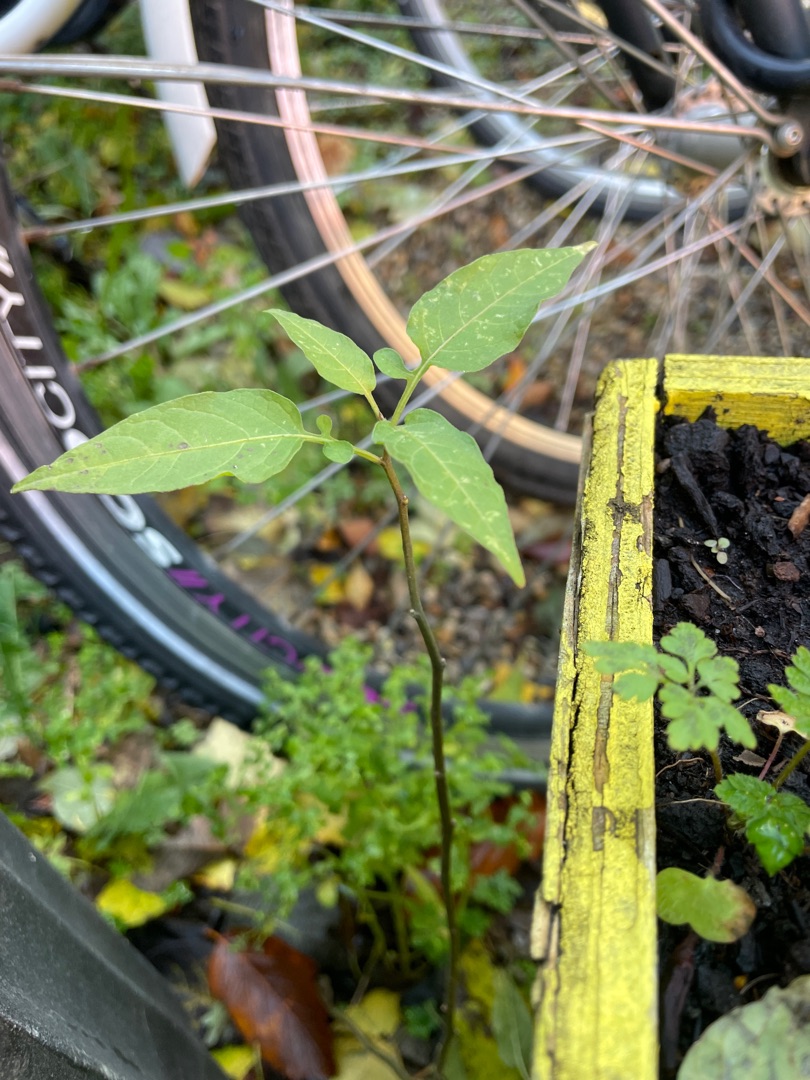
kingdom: Plantae
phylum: Tracheophyta
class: Magnoliopsida
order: Solanales
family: Solanaceae
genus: Solanum
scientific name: Solanum dulcamara
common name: Bittersød natskygge
